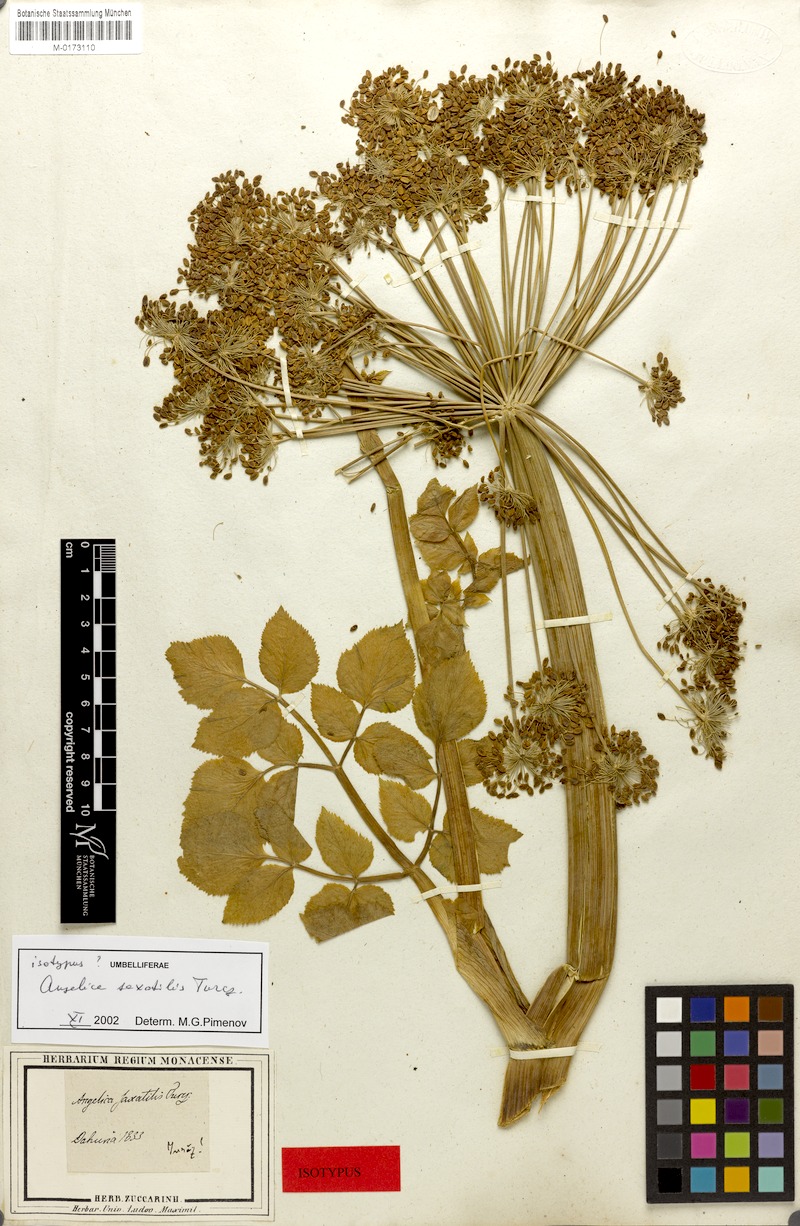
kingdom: Plantae
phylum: Tracheophyta
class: Magnoliopsida
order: Apiales
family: Apiaceae
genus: Angelica
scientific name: Angelica saxatilis
